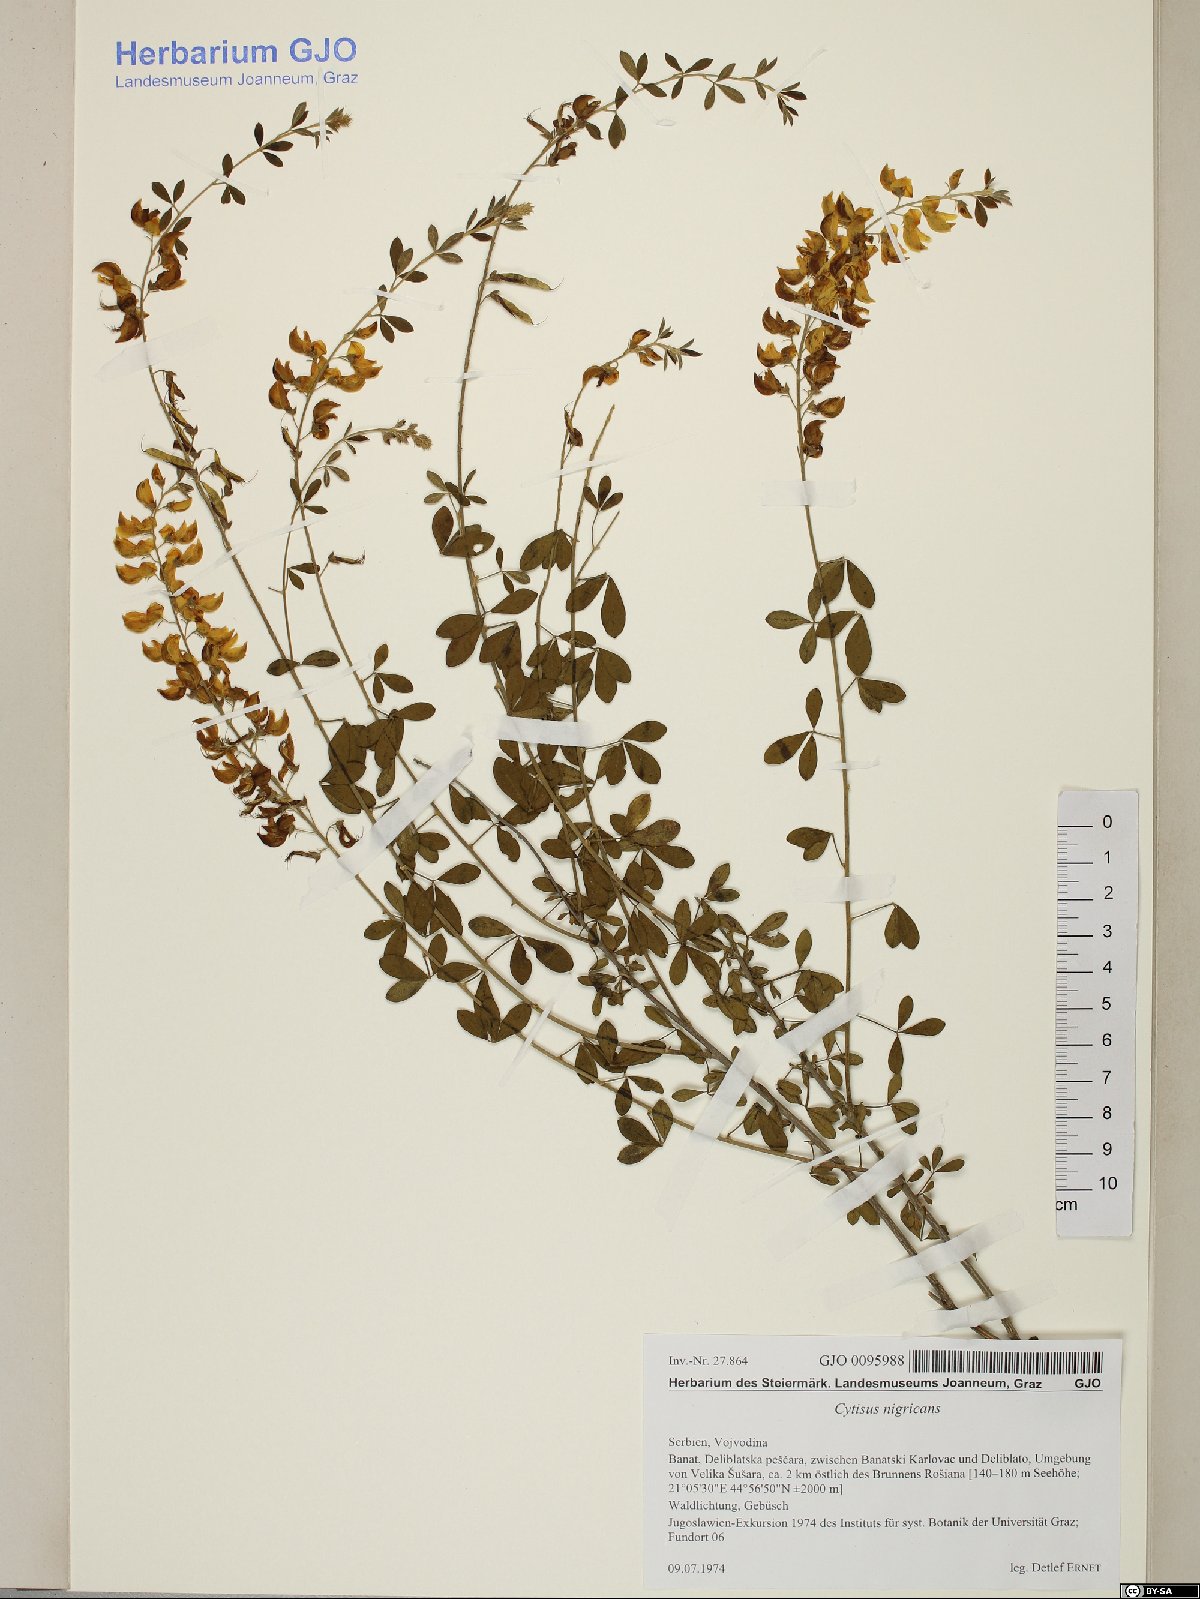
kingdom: Plantae
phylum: Tracheophyta
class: Magnoliopsida
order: Fabales
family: Fabaceae
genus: Cytisus
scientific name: Cytisus nigricans
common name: Black broom
